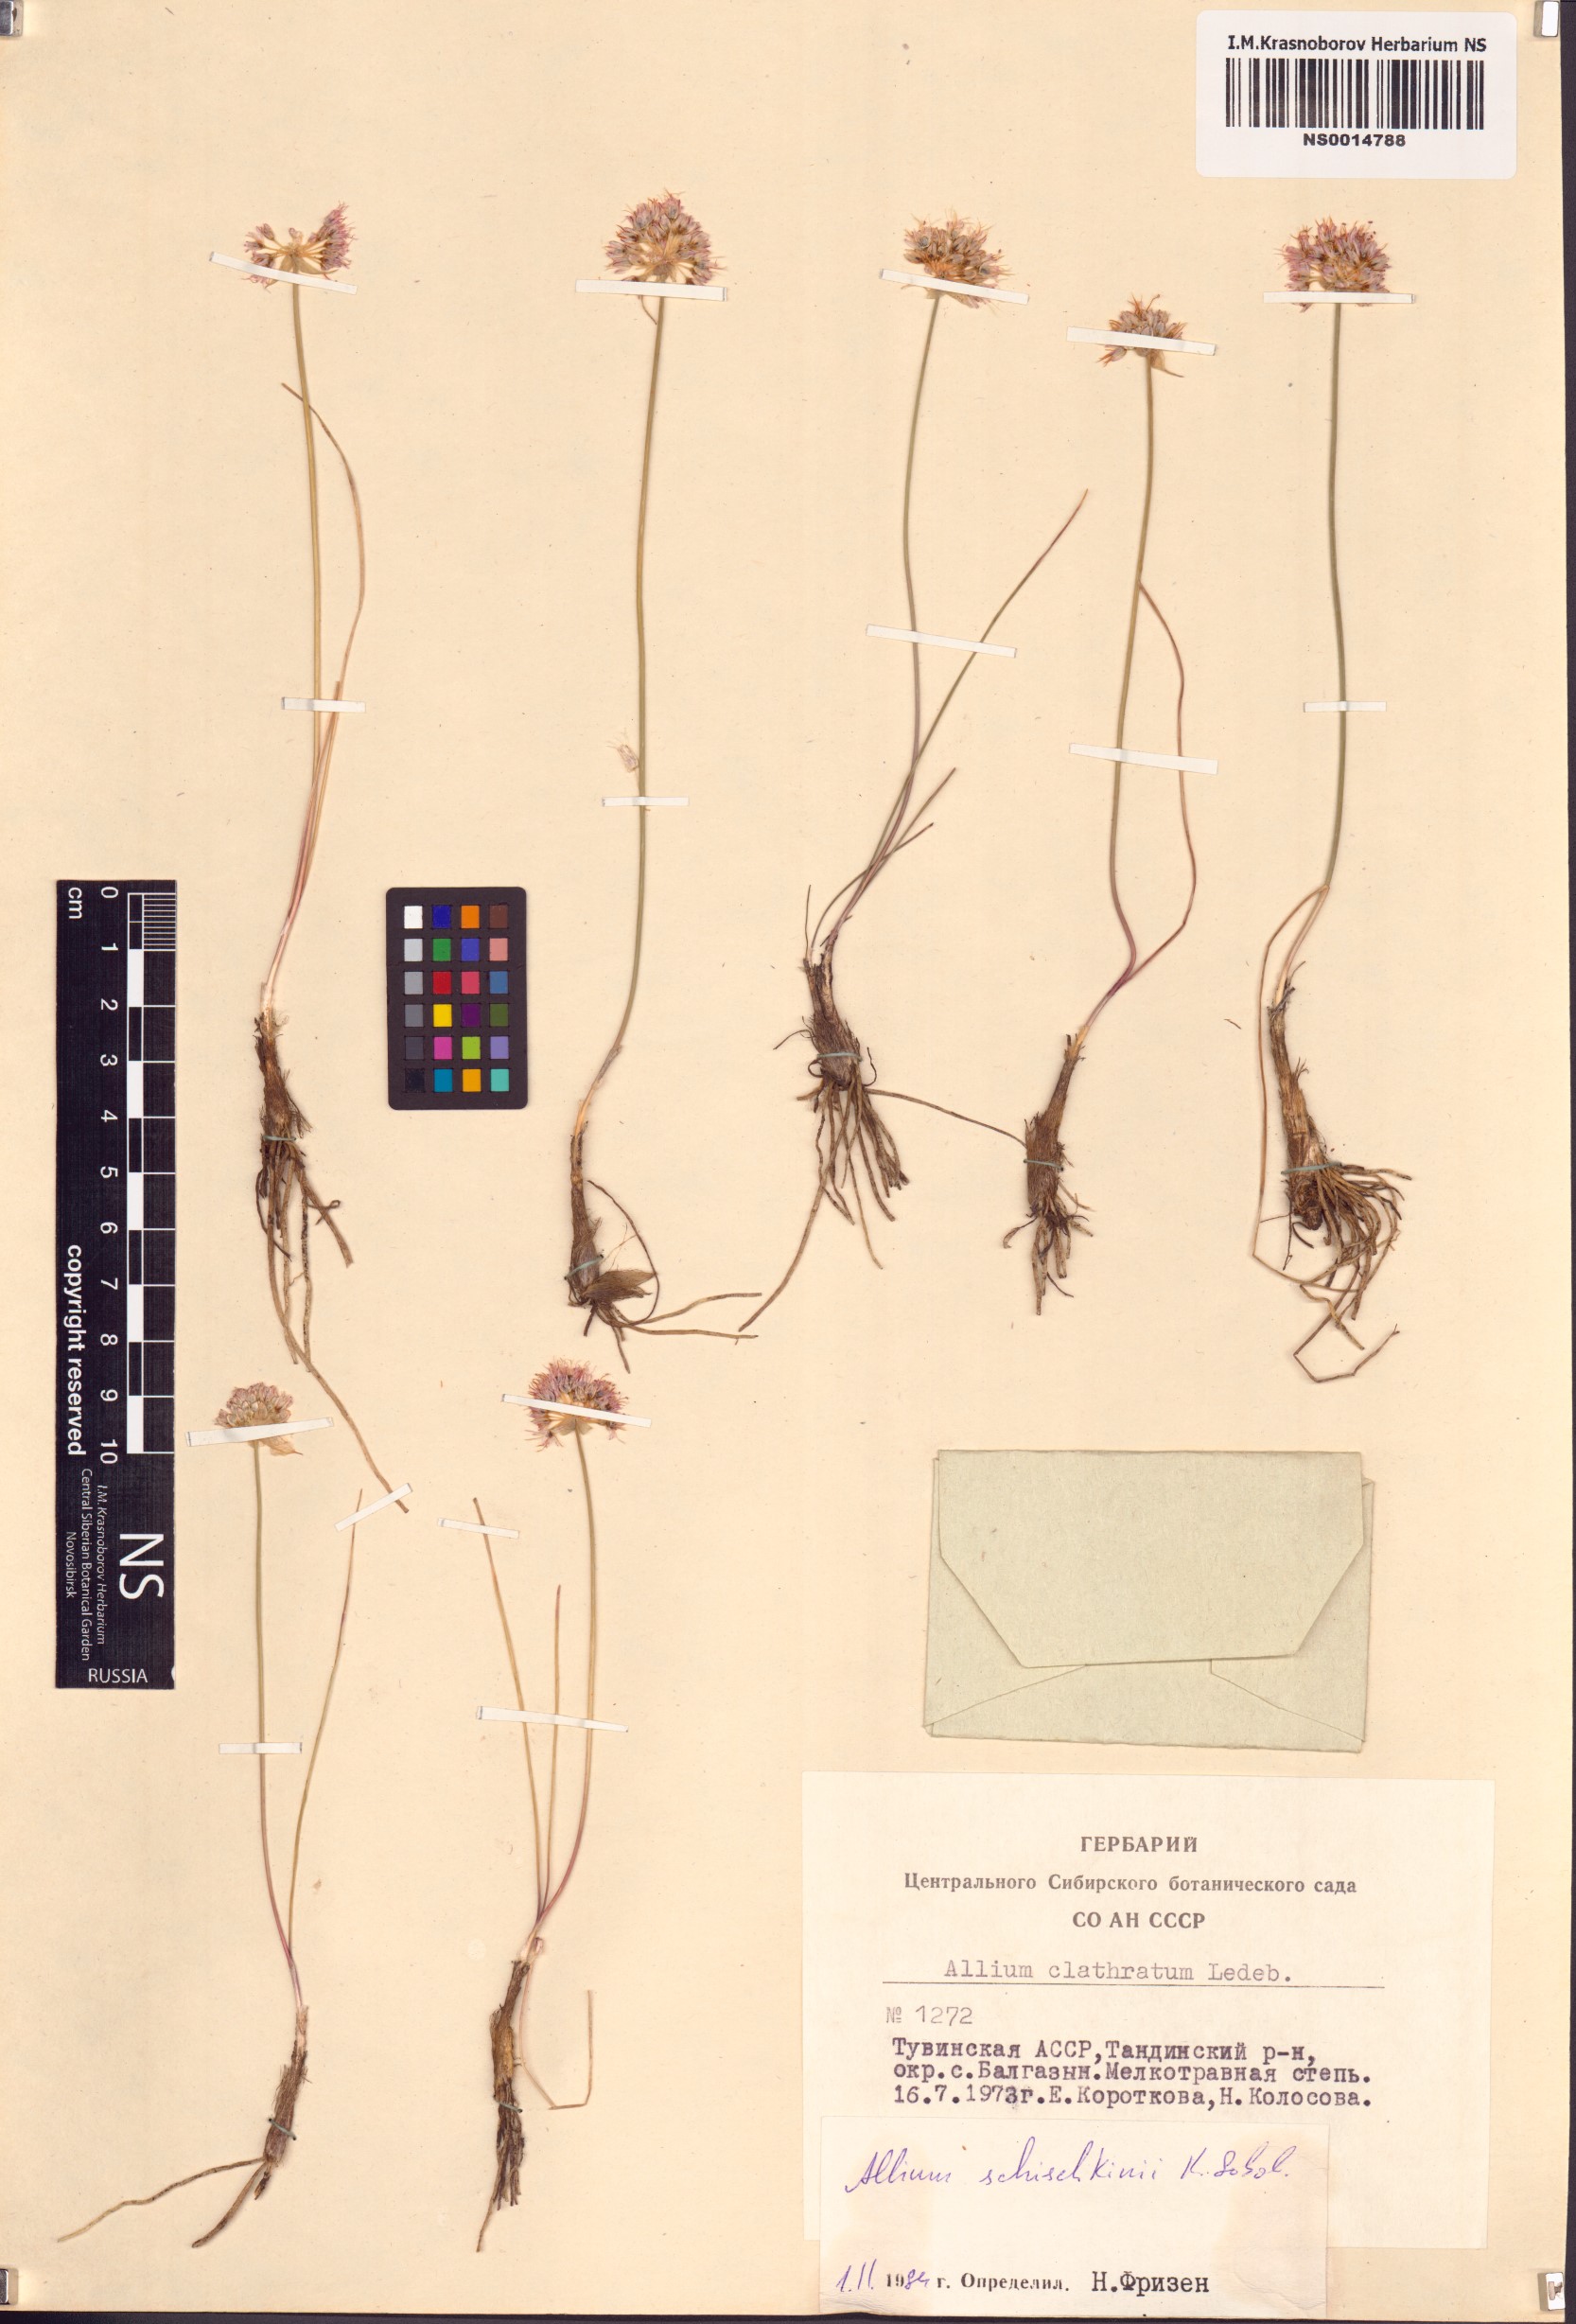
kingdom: Plantae
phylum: Tracheophyta
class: Liliopsida
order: Asparagales
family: Amaryllidaceae
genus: Allium
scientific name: Allium schischkinii
